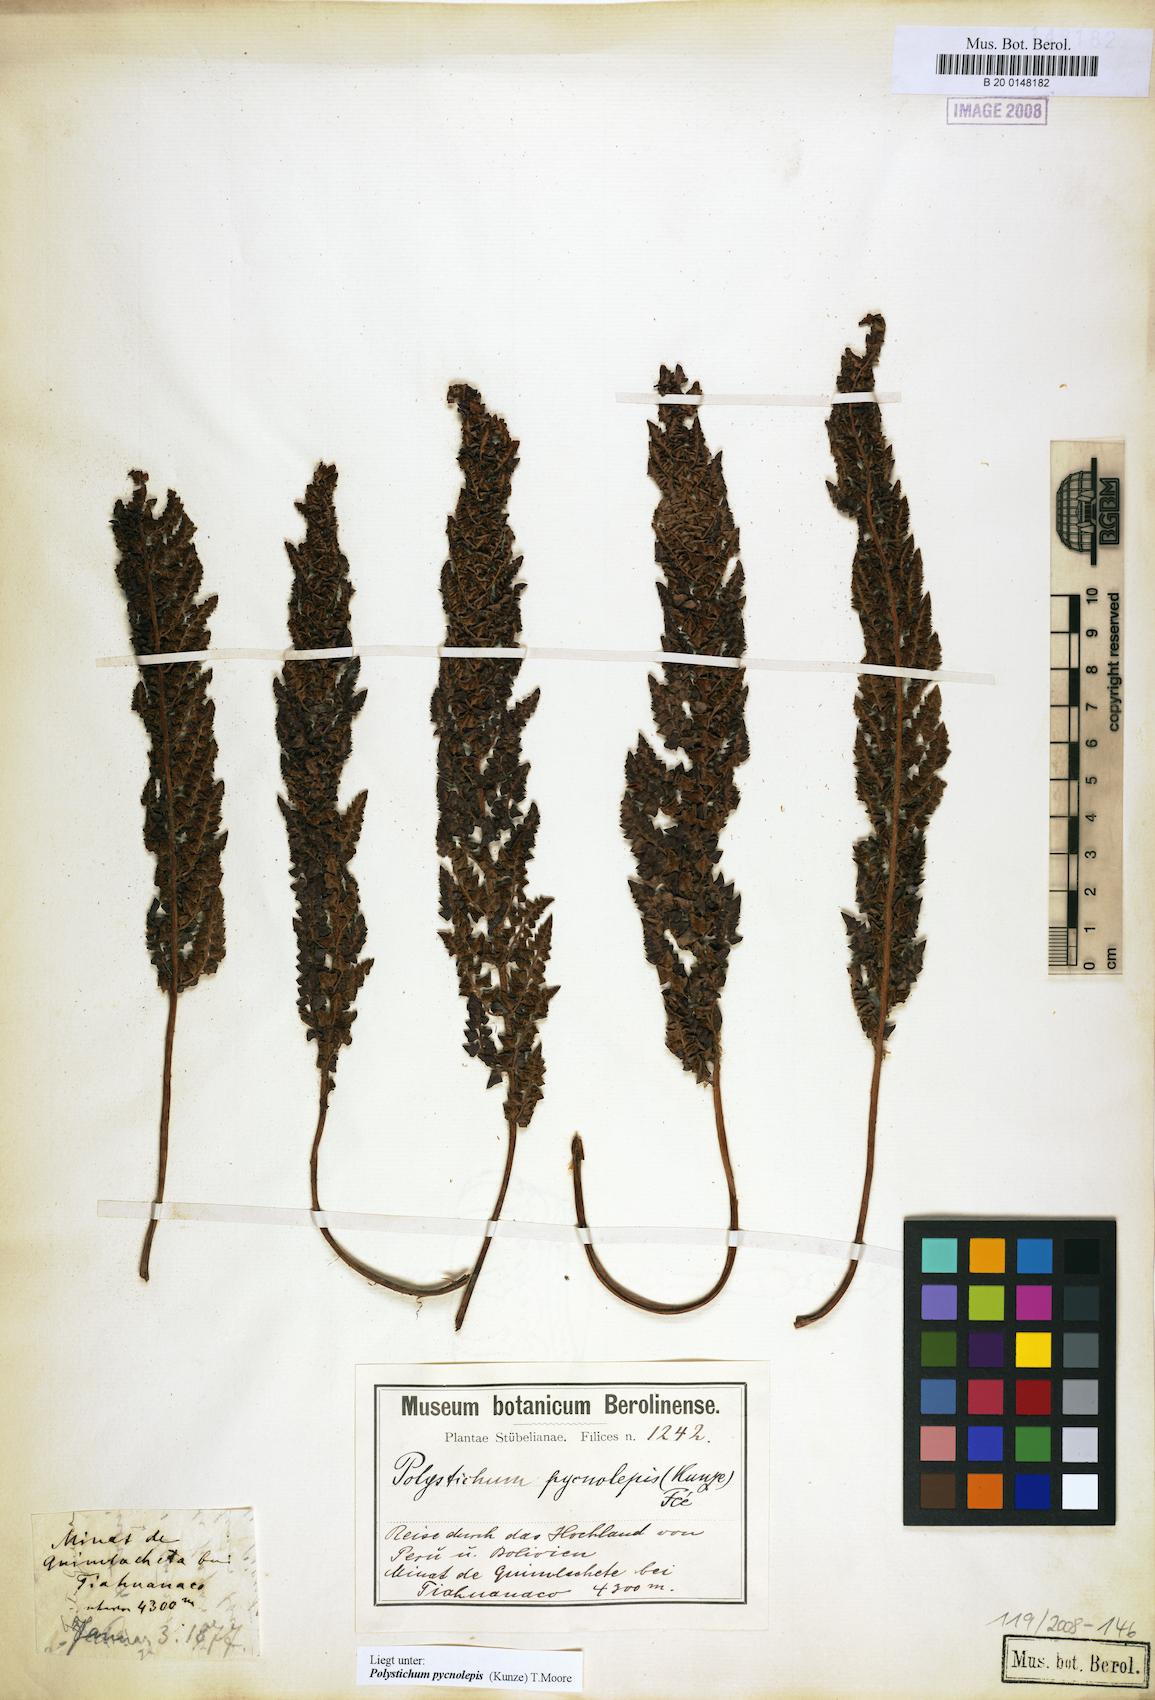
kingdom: Plantae
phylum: Tracheophyta
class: Polypodiopsida
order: Polypodiales
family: Dryopteridaceae
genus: Polystichum
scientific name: Polystichum pycnolepis
